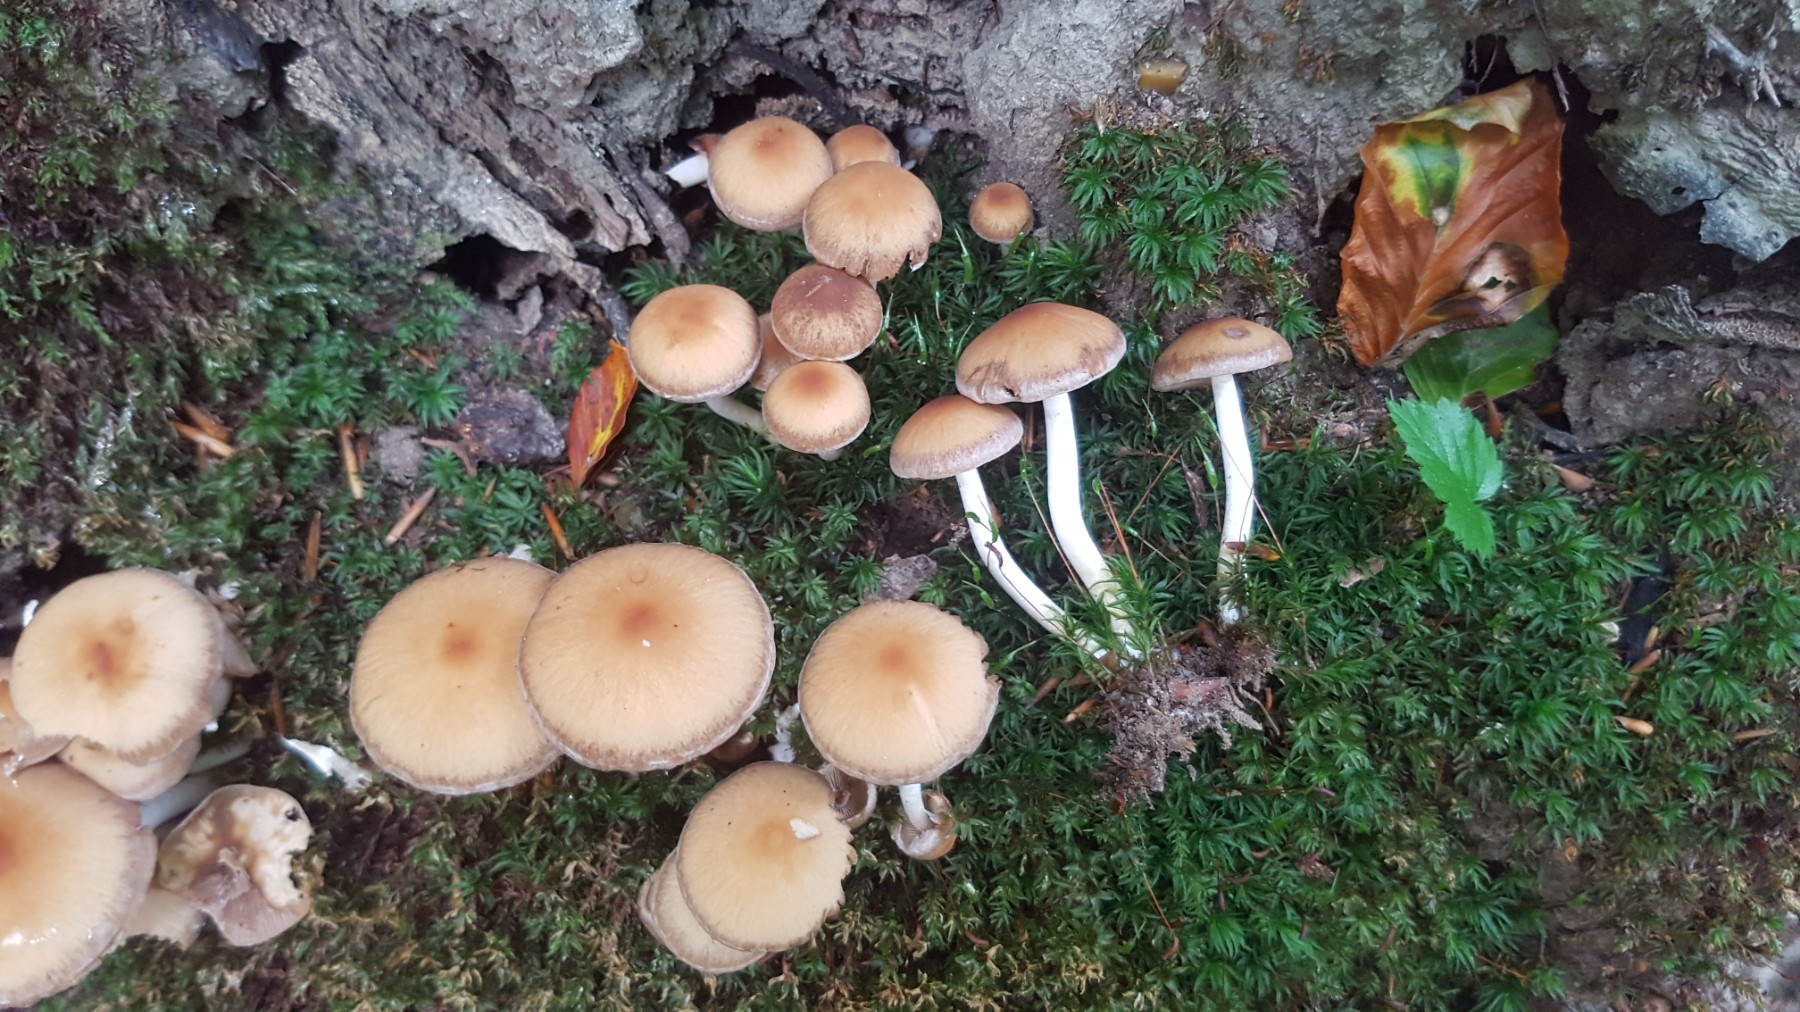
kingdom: Fungi
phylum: Basidiomycota
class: Agaricomycetes
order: Agaricales
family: Psathyrellaceae
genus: Psathyrella
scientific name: Psathyrella piluliformis
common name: lysstokket mørkhat
